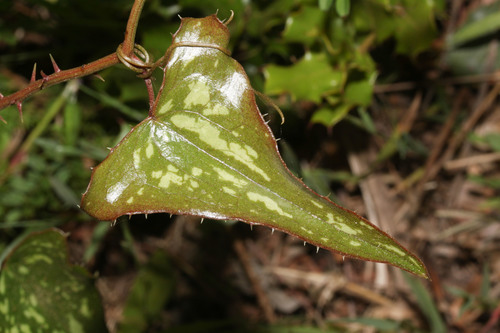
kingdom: Plantae
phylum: Tracheophyta
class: Liliopsida
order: Liliales
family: Smilacaceae
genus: Smilax
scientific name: Smilax aspera
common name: Common smilax
